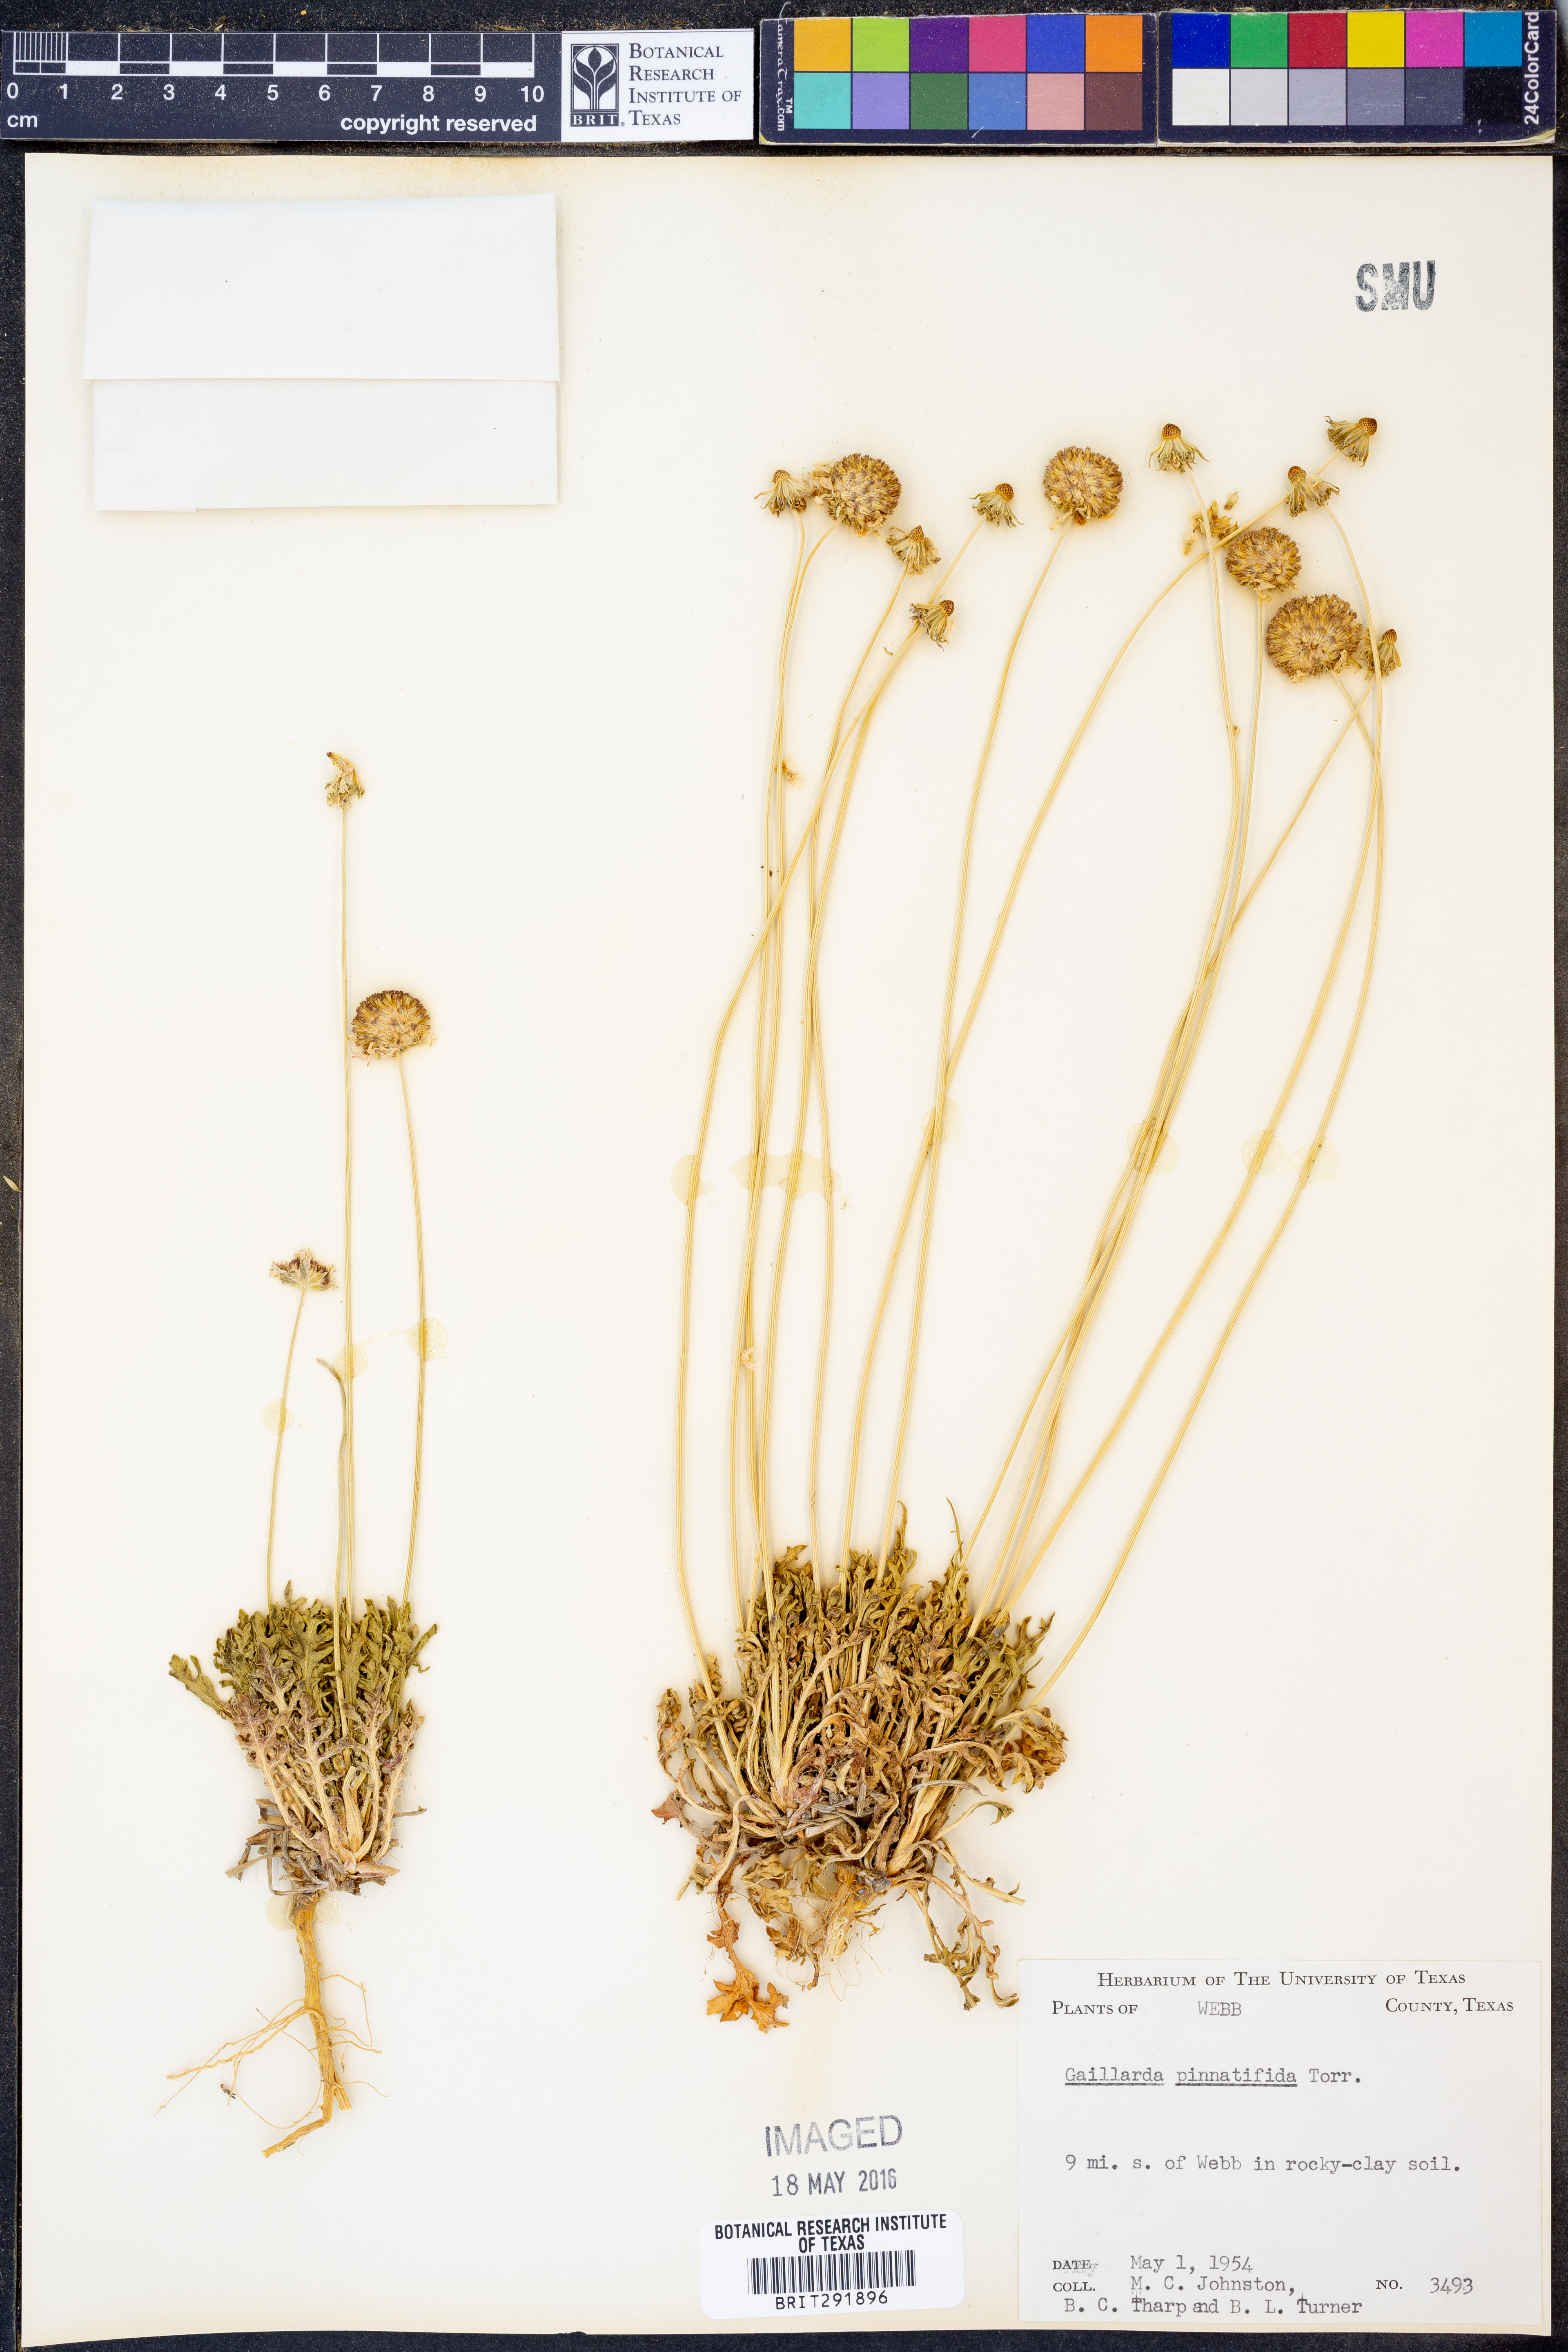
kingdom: Plantae
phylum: Tracheophyta
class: Magnoliopsida
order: Asterales
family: Asteraceae
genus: Gaillardia
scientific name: Gaillardia pinnatifida
